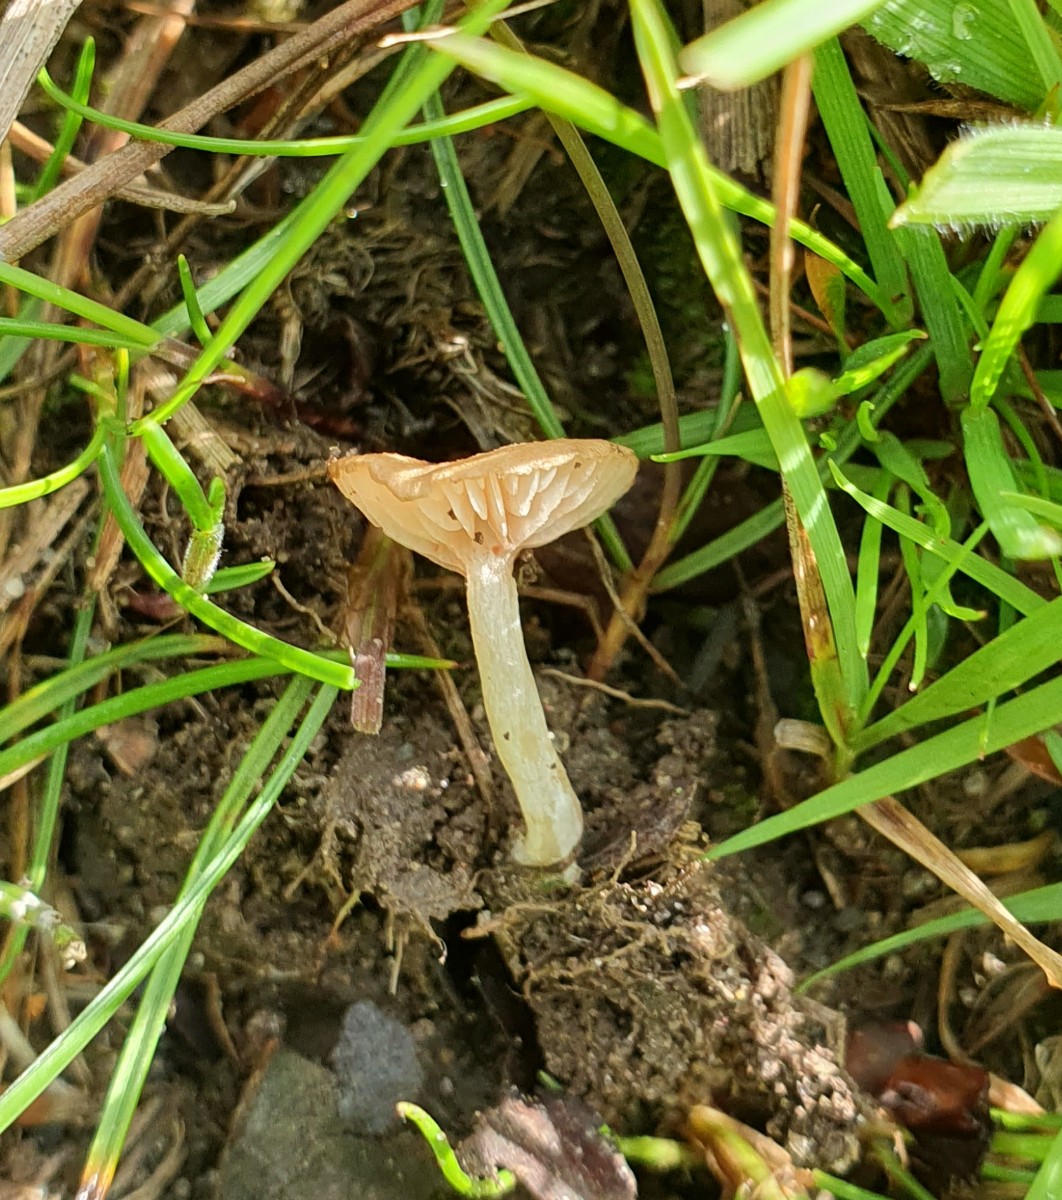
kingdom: Fungi
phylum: Basidiomycota
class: Agaricomycetes
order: Agaricales
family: Entolomataceae
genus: Entoloma
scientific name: Entoloma neglectum
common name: bleg rødblad
